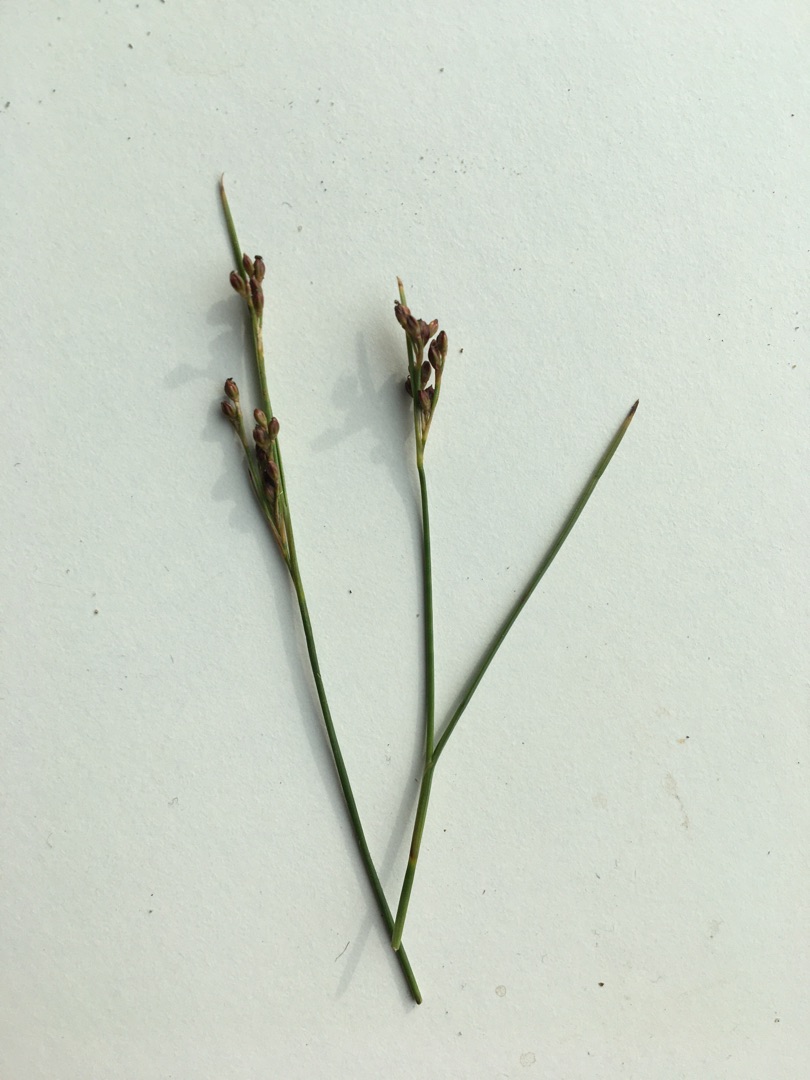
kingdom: Plantae
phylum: Tracheophyta
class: Liliopsida
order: Poales
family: Juncaceae
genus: Juncus
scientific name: Juncus gerardi
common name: Harril
